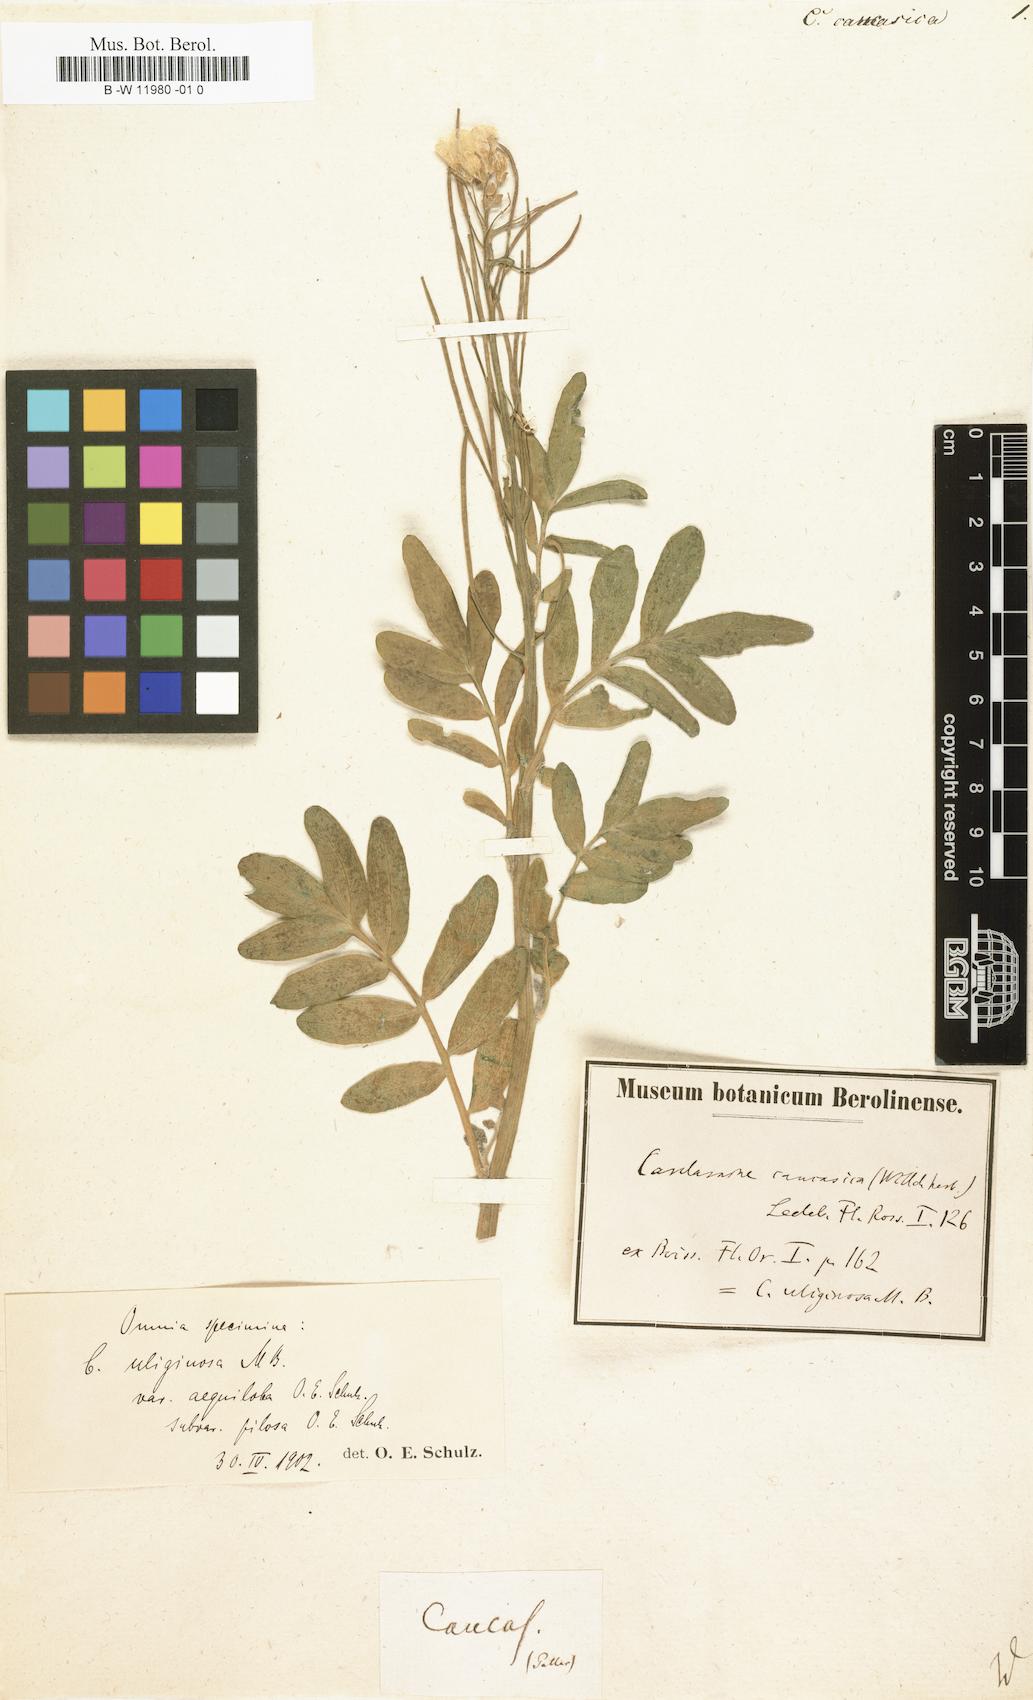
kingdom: Plantae
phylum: Tracheophyta
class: Magnoliopsida
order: Brassicales
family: Brassicaceae
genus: Cardamine
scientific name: Cardamine uliginosa
